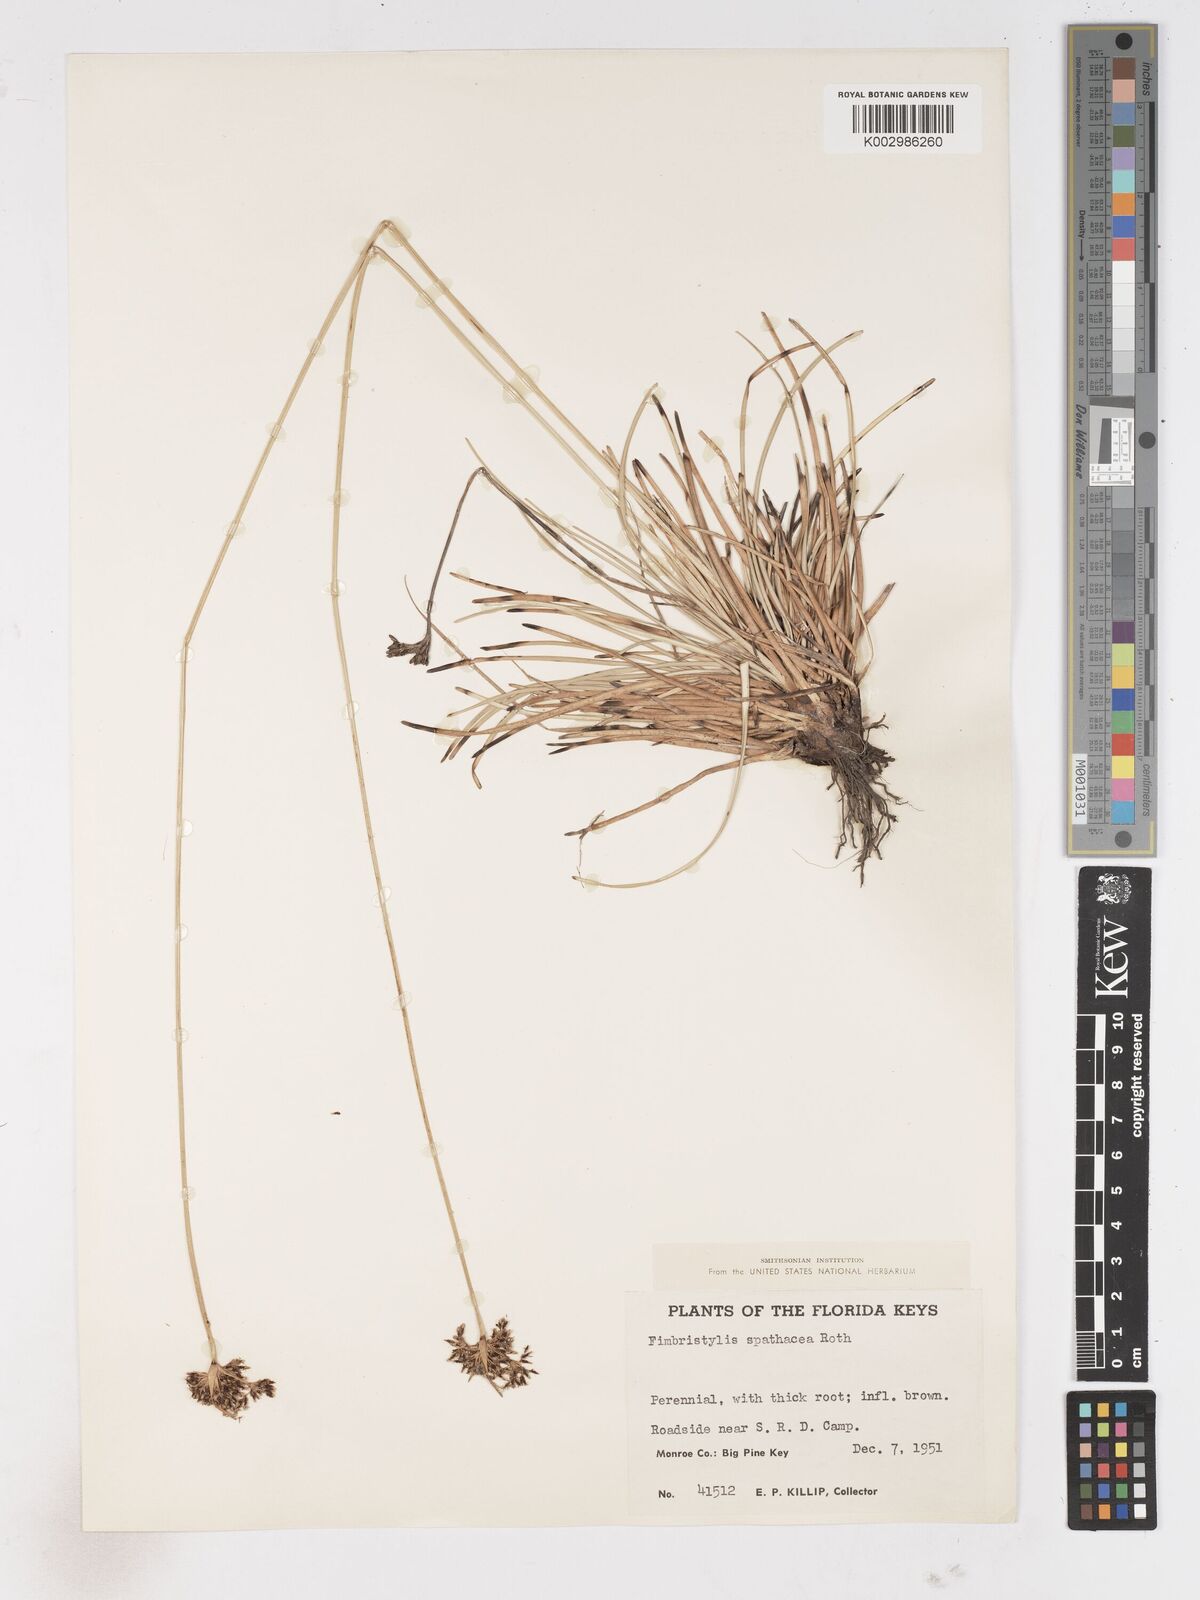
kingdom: Plantae
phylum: Tracheophyta
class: Liliopsida
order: Poales
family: Cyperaceae
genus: Fimbristylis
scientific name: Fimbristylis cymosa
